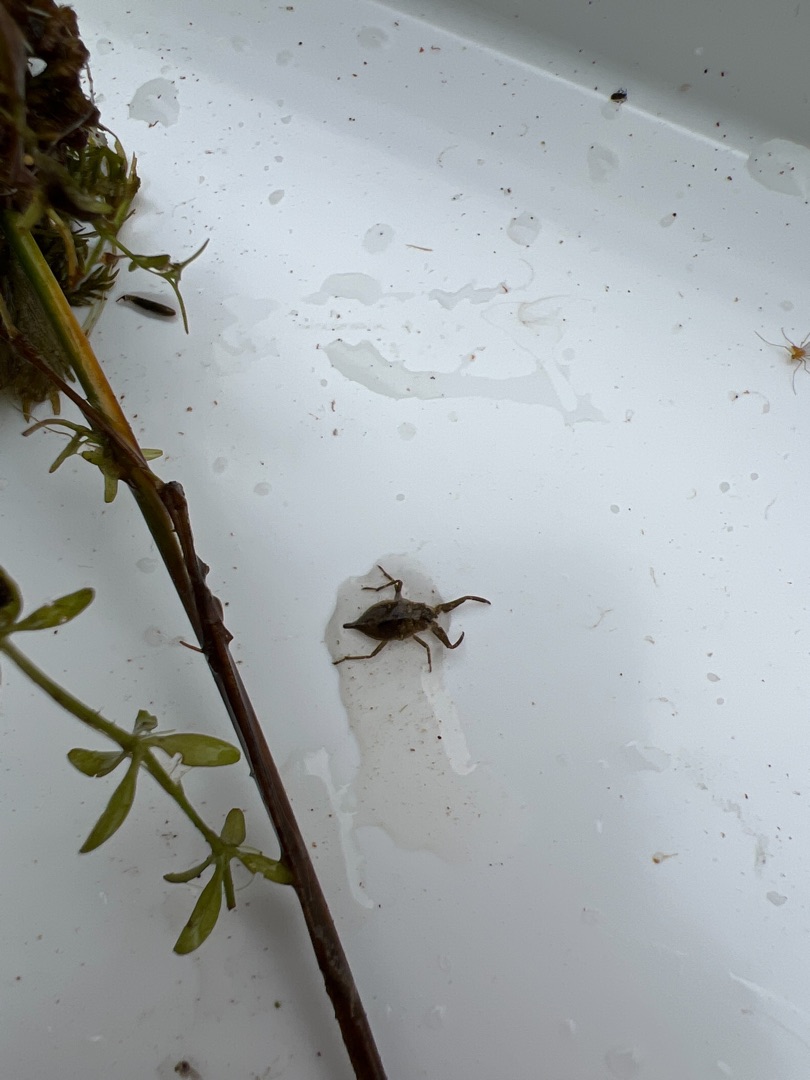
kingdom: Animalia
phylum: Arthropoda
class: Insecta
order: Hemiptera
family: Nepidae
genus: Nepa
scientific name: Nepa cinerea
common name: Skorpiontæge
